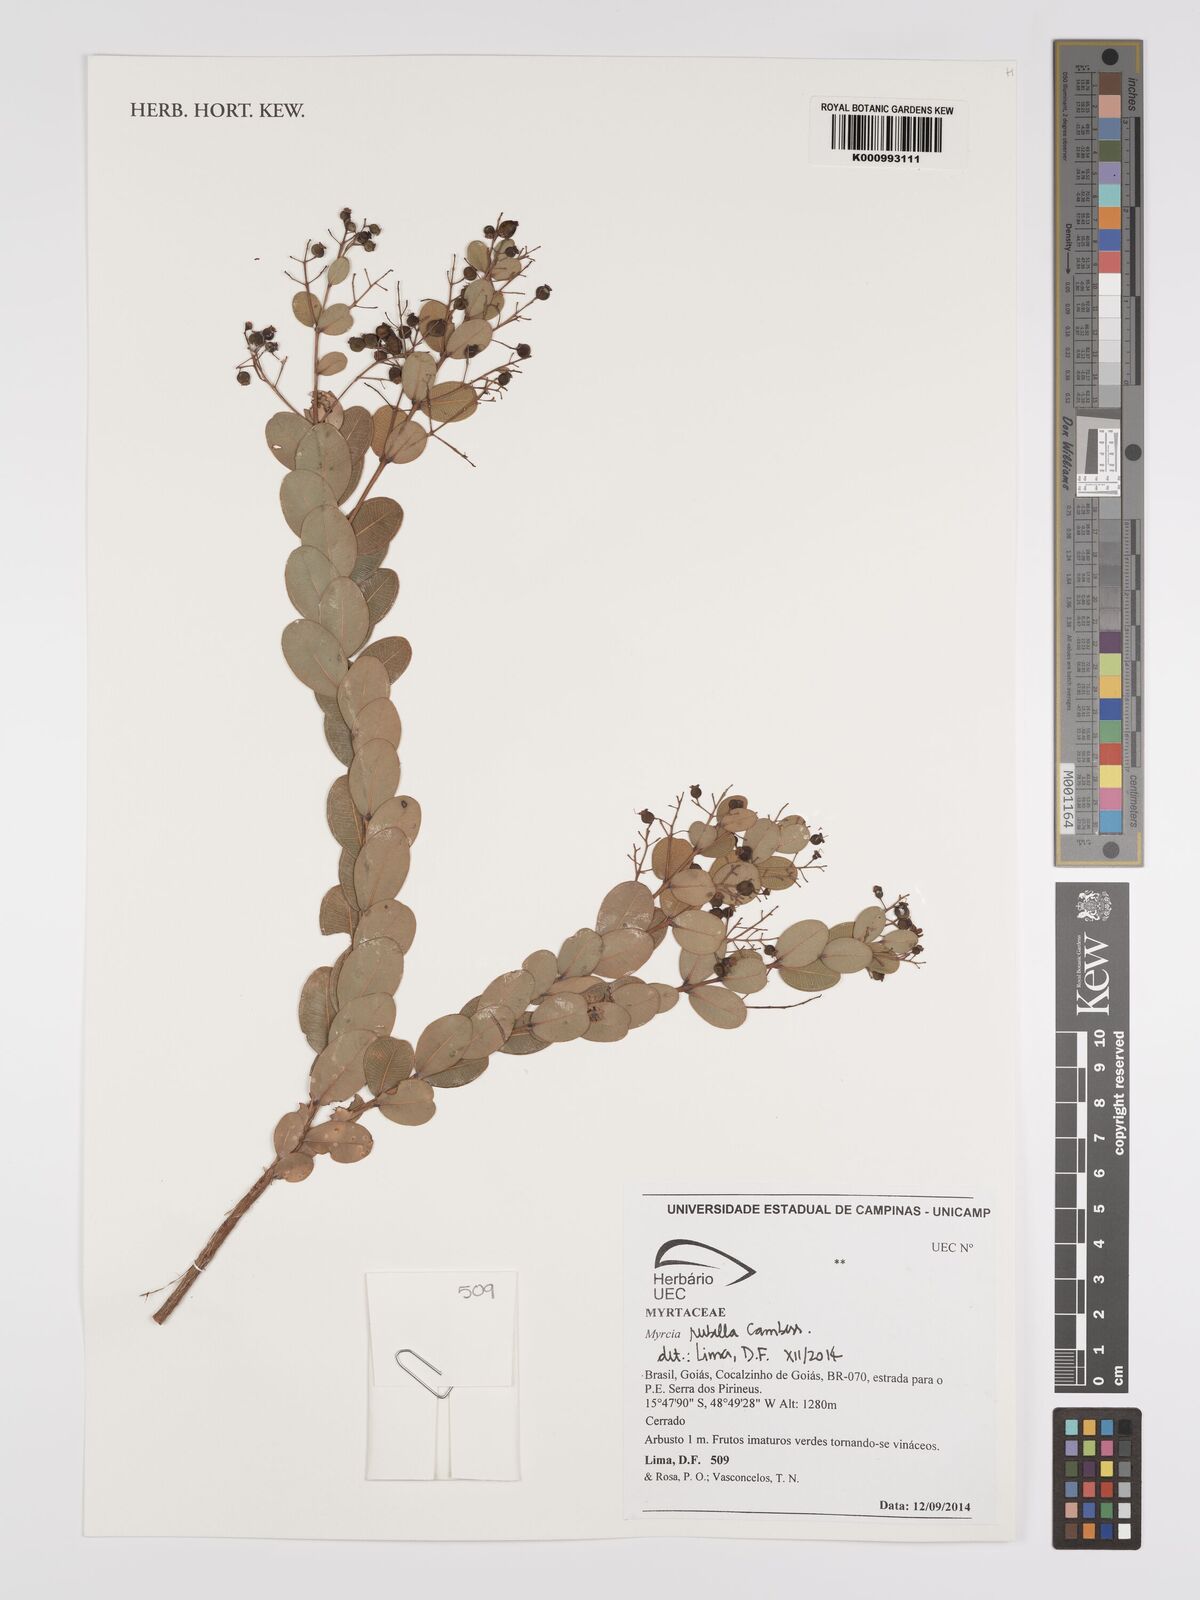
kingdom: Plantae
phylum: Tracheophyta
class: Magnoliopsida
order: Myrtales
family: Myrtaceae
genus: Myrcia
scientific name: Myrcia guianensis
